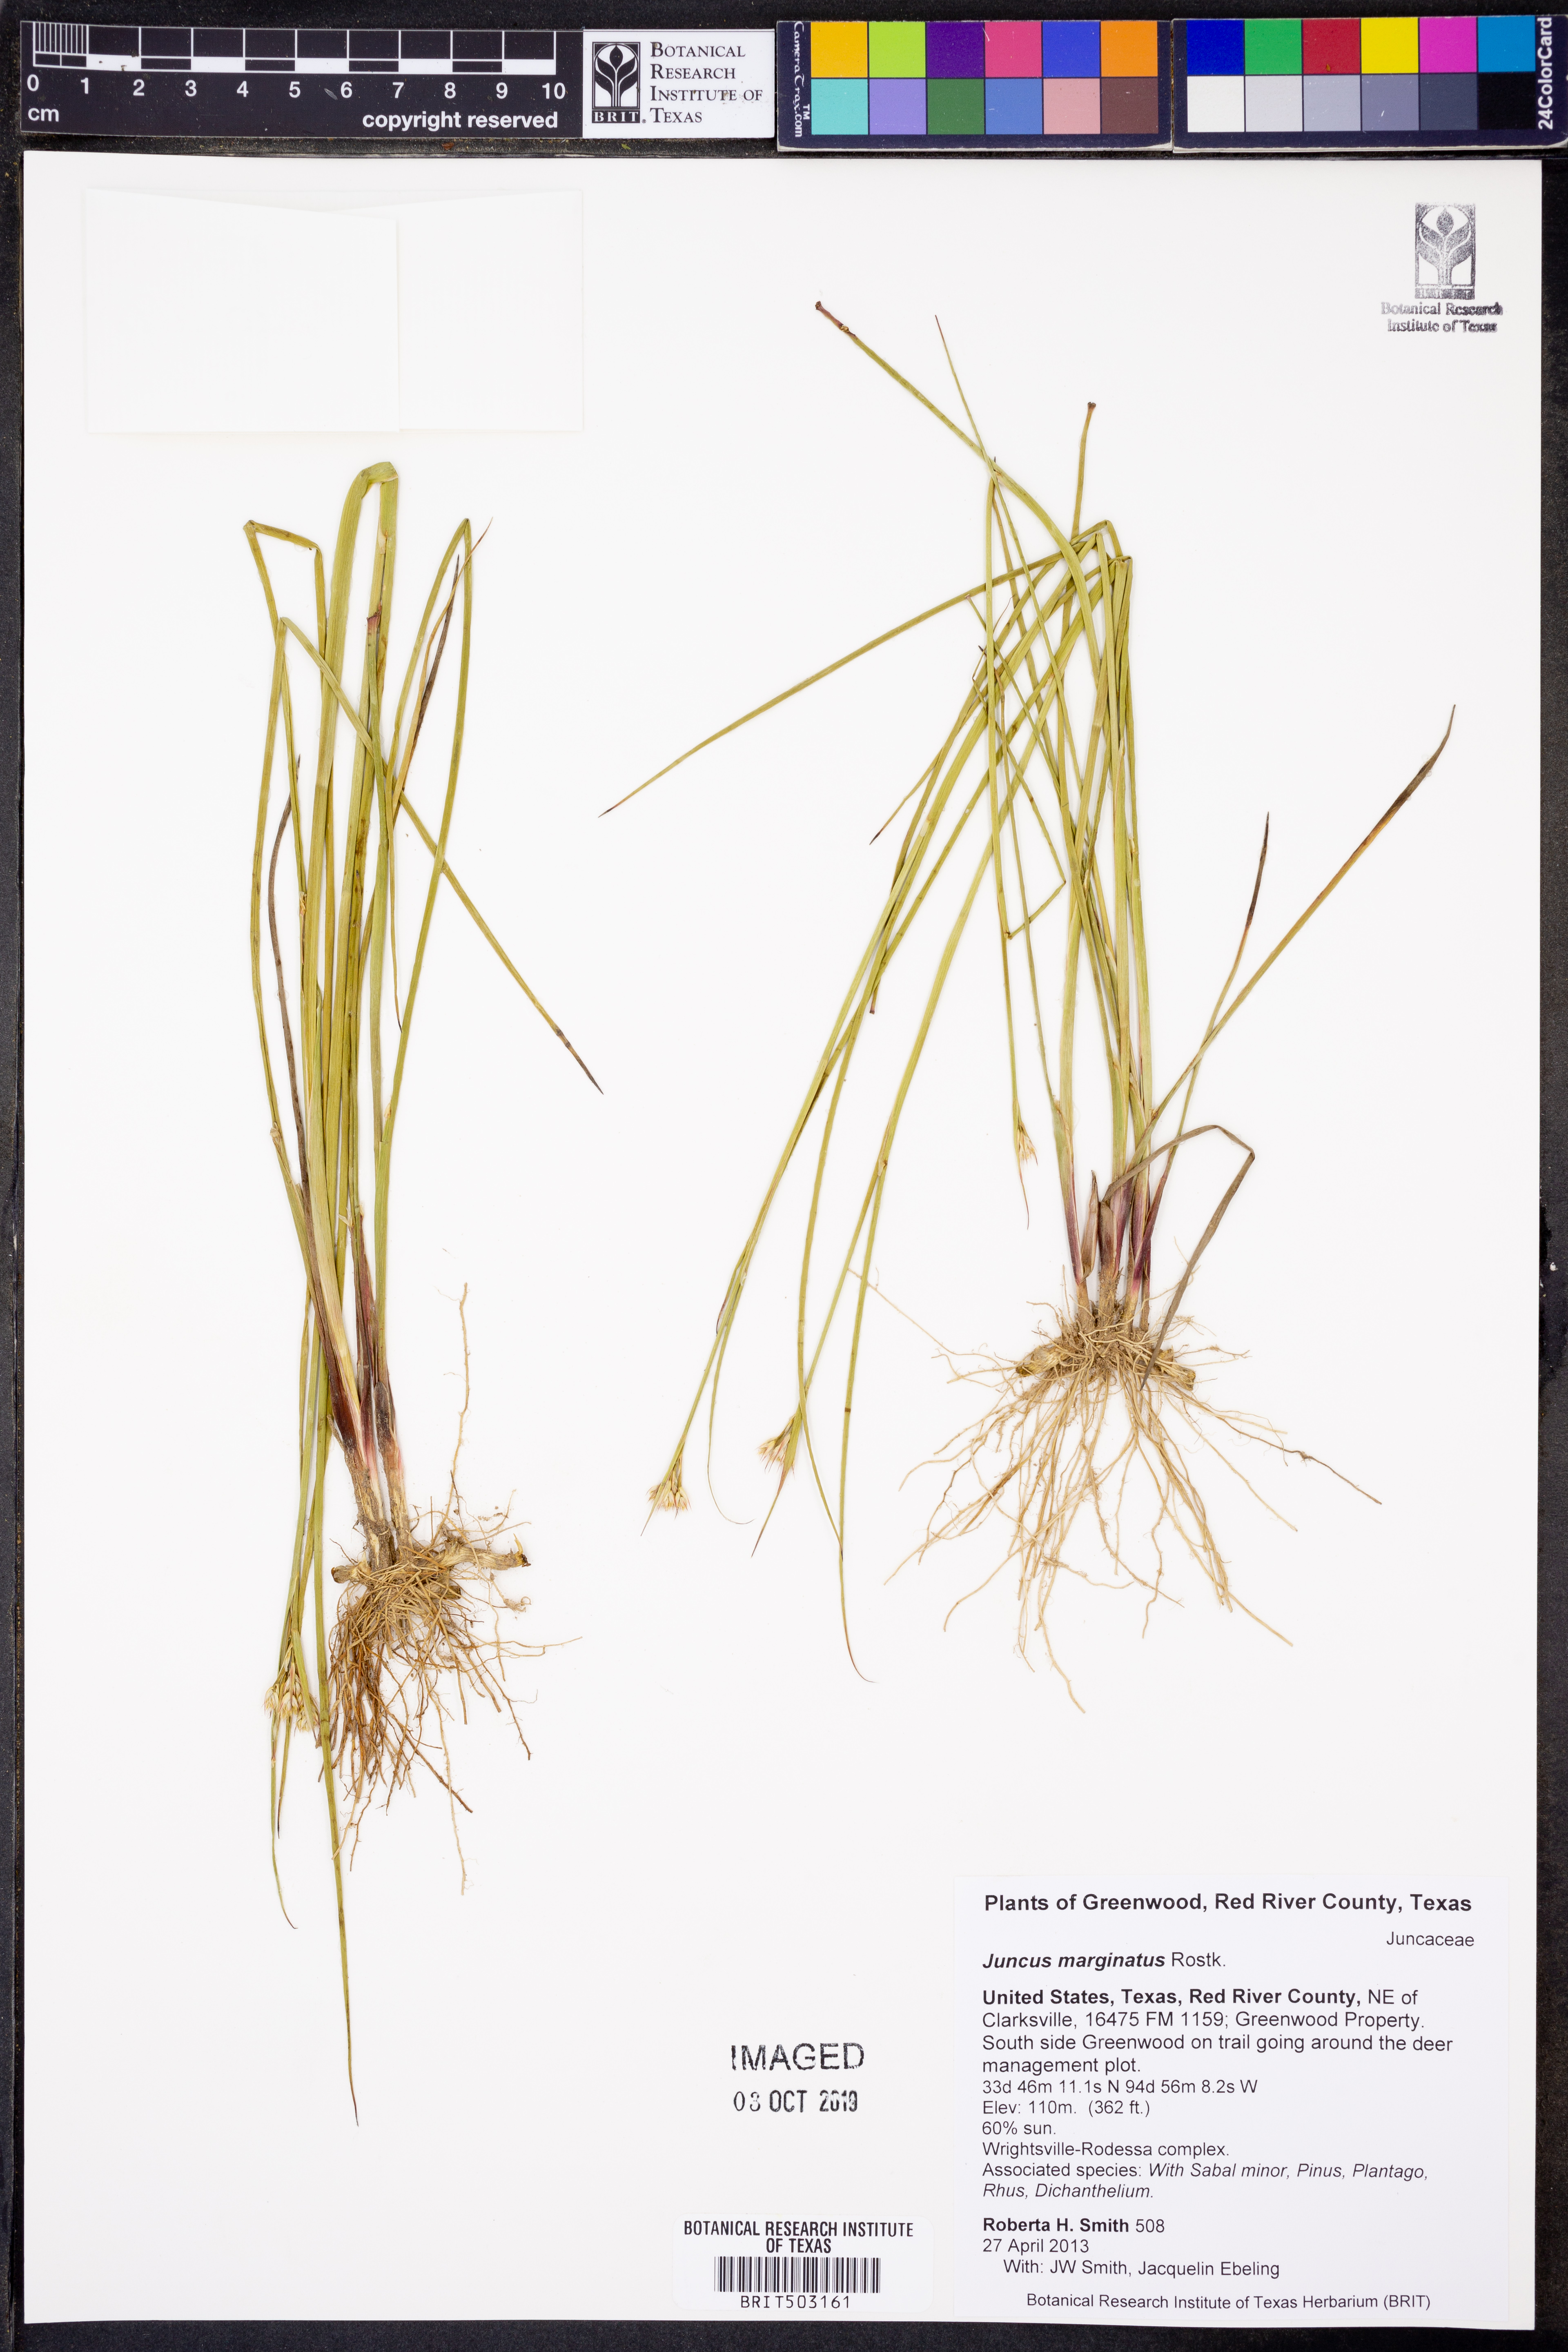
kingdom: Plantae
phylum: Tracheophyta
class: Liliopsida
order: Poales
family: Juncaceae
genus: Juncus
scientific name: Juncus marginatus
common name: Grass-leaf rush
